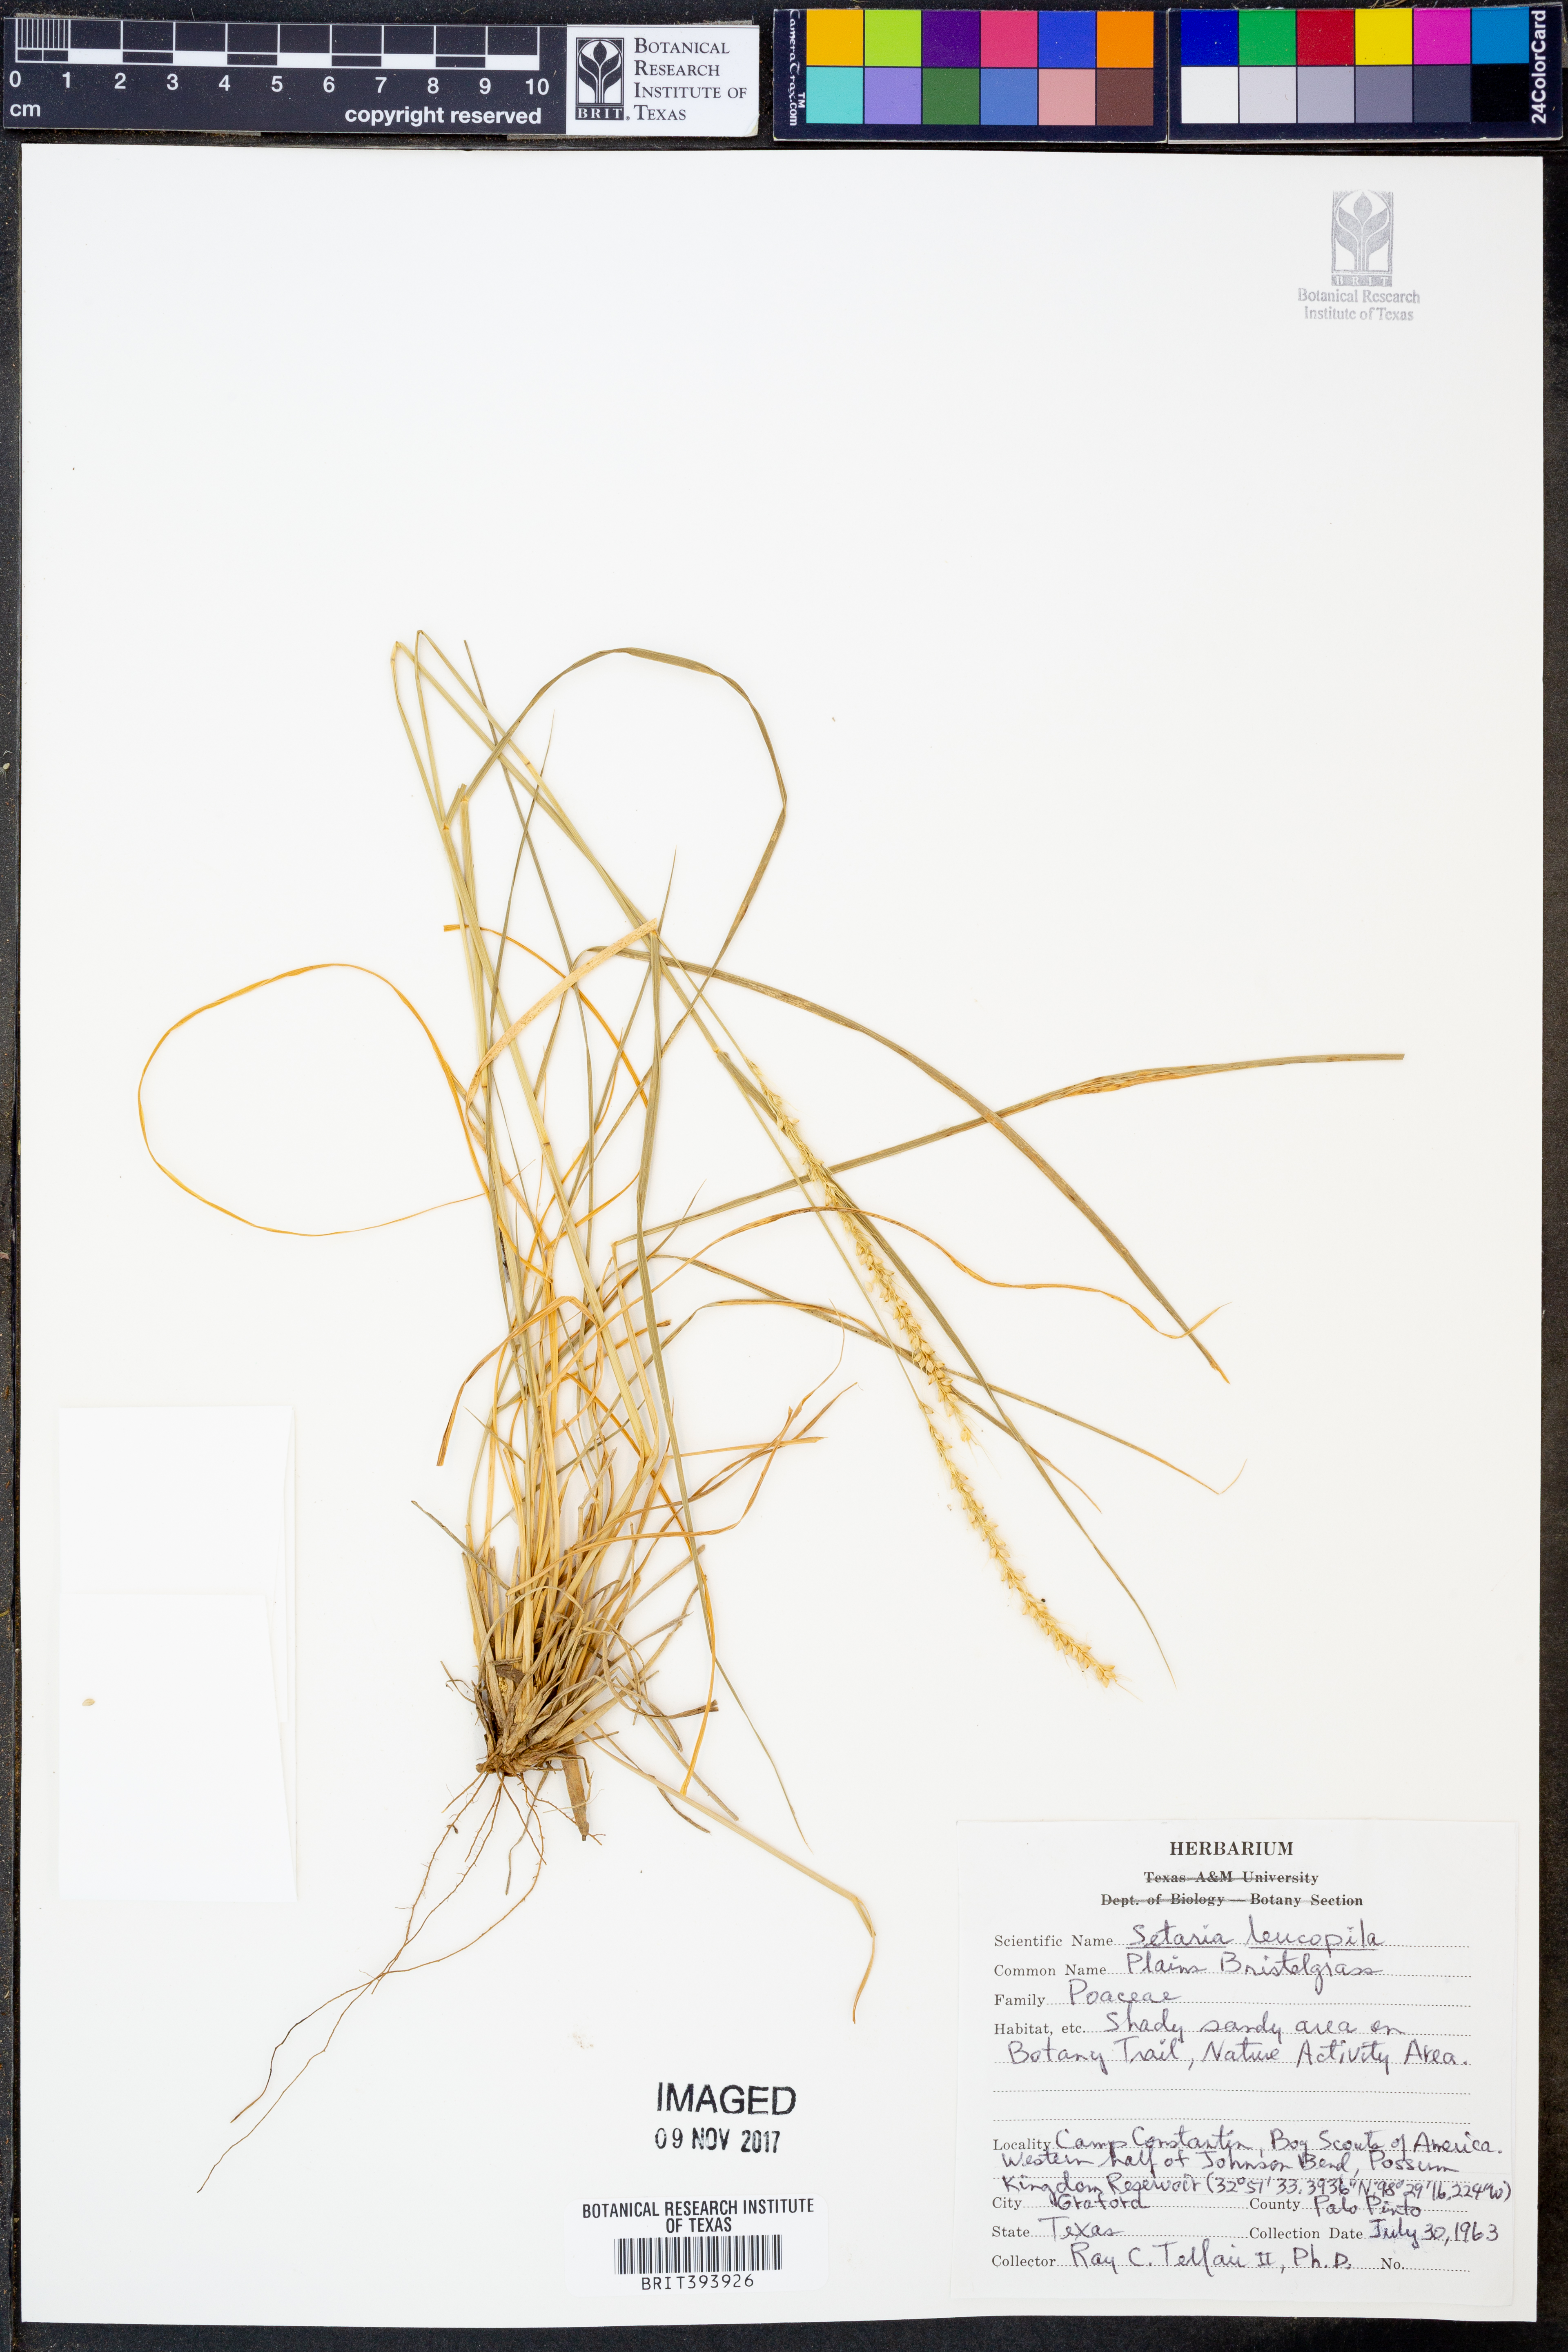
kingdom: Plantae
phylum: Tracheophyta
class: Liliopsida
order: Poales
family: Poaceae
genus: Setaria
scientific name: Setaria leucopila
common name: Plains bristle grass
